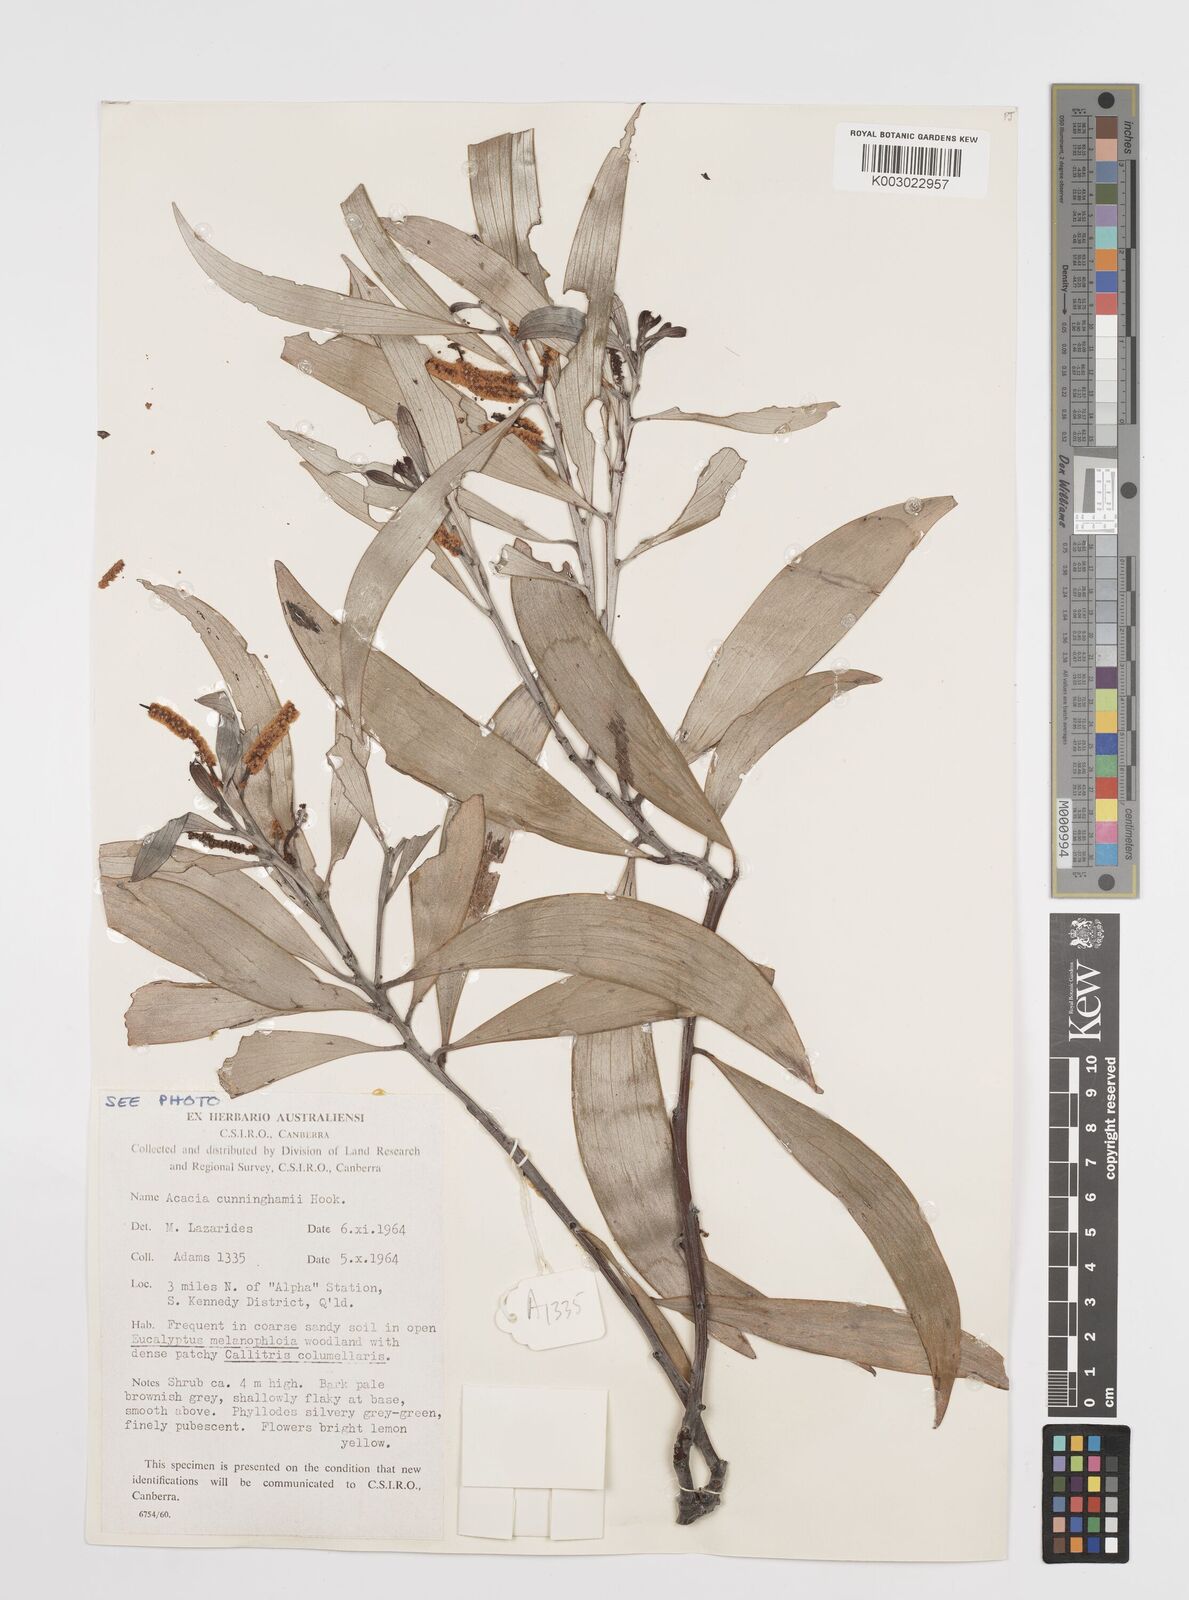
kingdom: Plantae
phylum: Tracheophyta
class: Magnoliopsida
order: Fabales
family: Fabaceae
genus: Acacia
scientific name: Acacia longispicata
